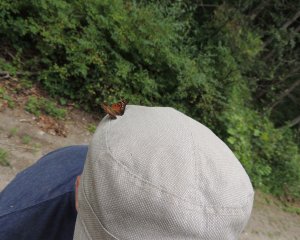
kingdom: Animalia
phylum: Arthropoda
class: Insecta
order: Lepidoptera
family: Nymphalidae
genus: Asterocampa
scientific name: Asterocampa clyton
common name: Tawny Emperor
